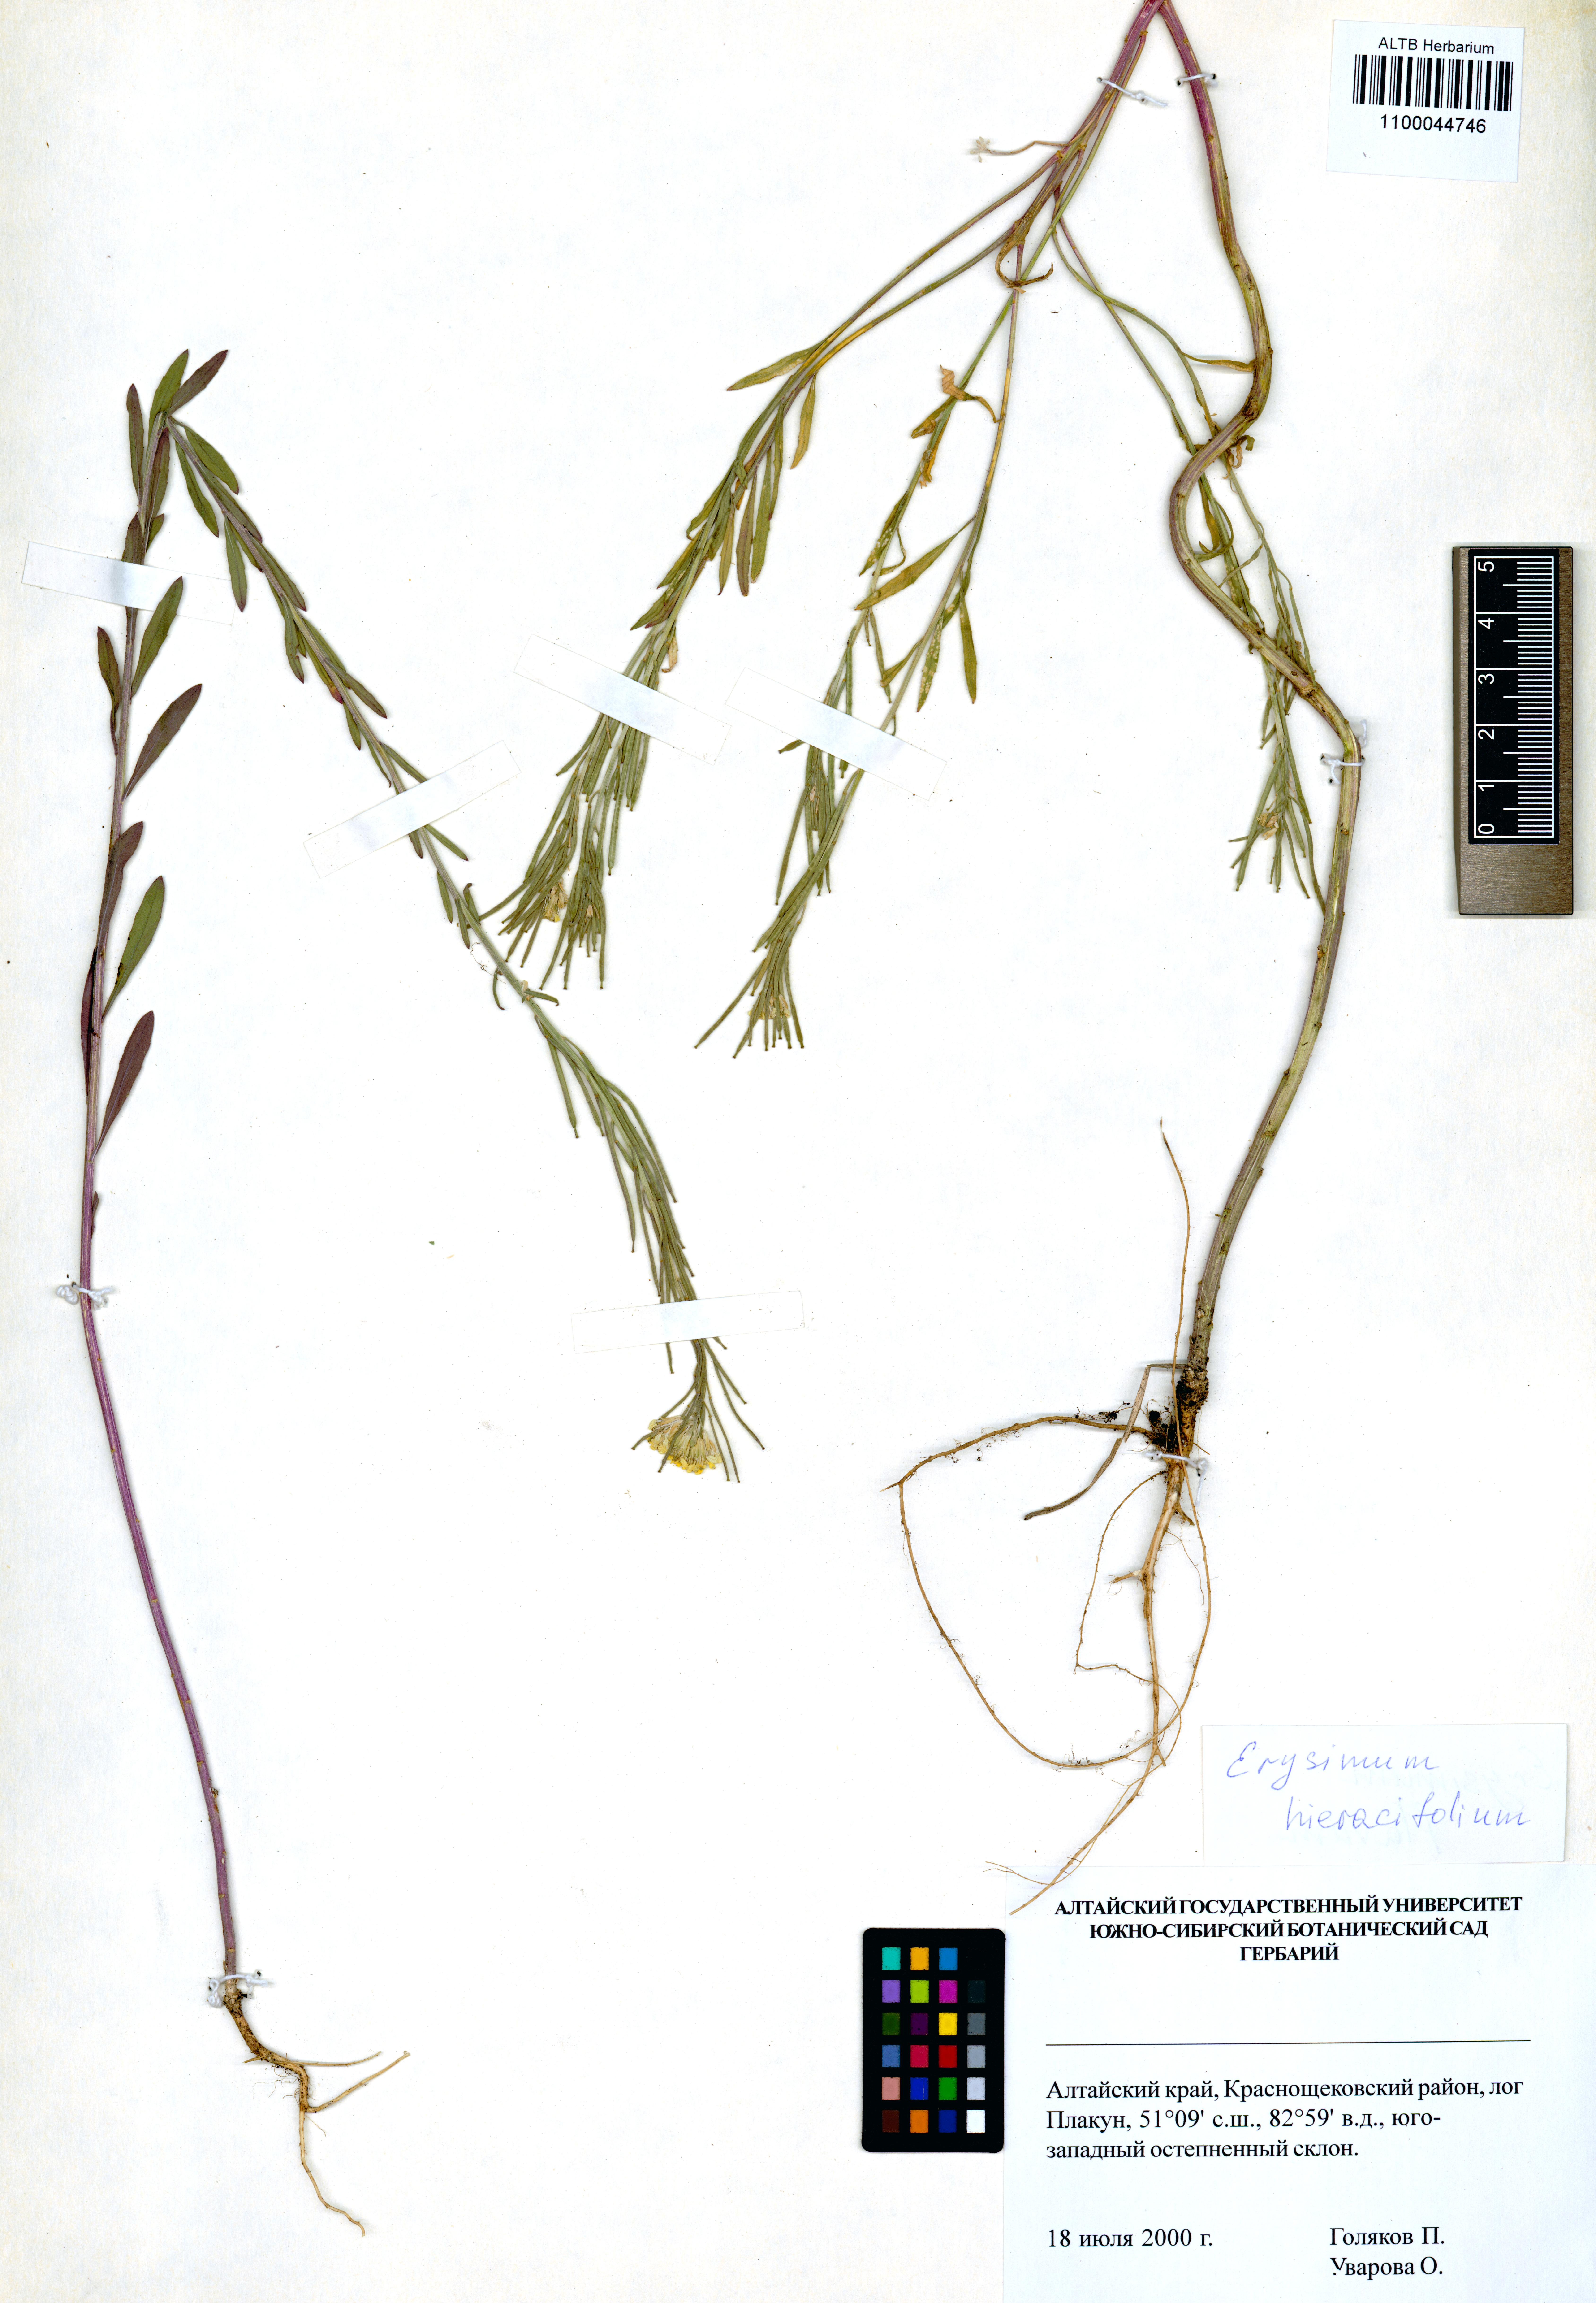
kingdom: Plantae
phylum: Tracheophyta
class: Magnoliopsida
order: Brassicales
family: Brassicaceae
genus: Erysimum
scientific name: Erysimum hieraciifolium
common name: European wallflower
